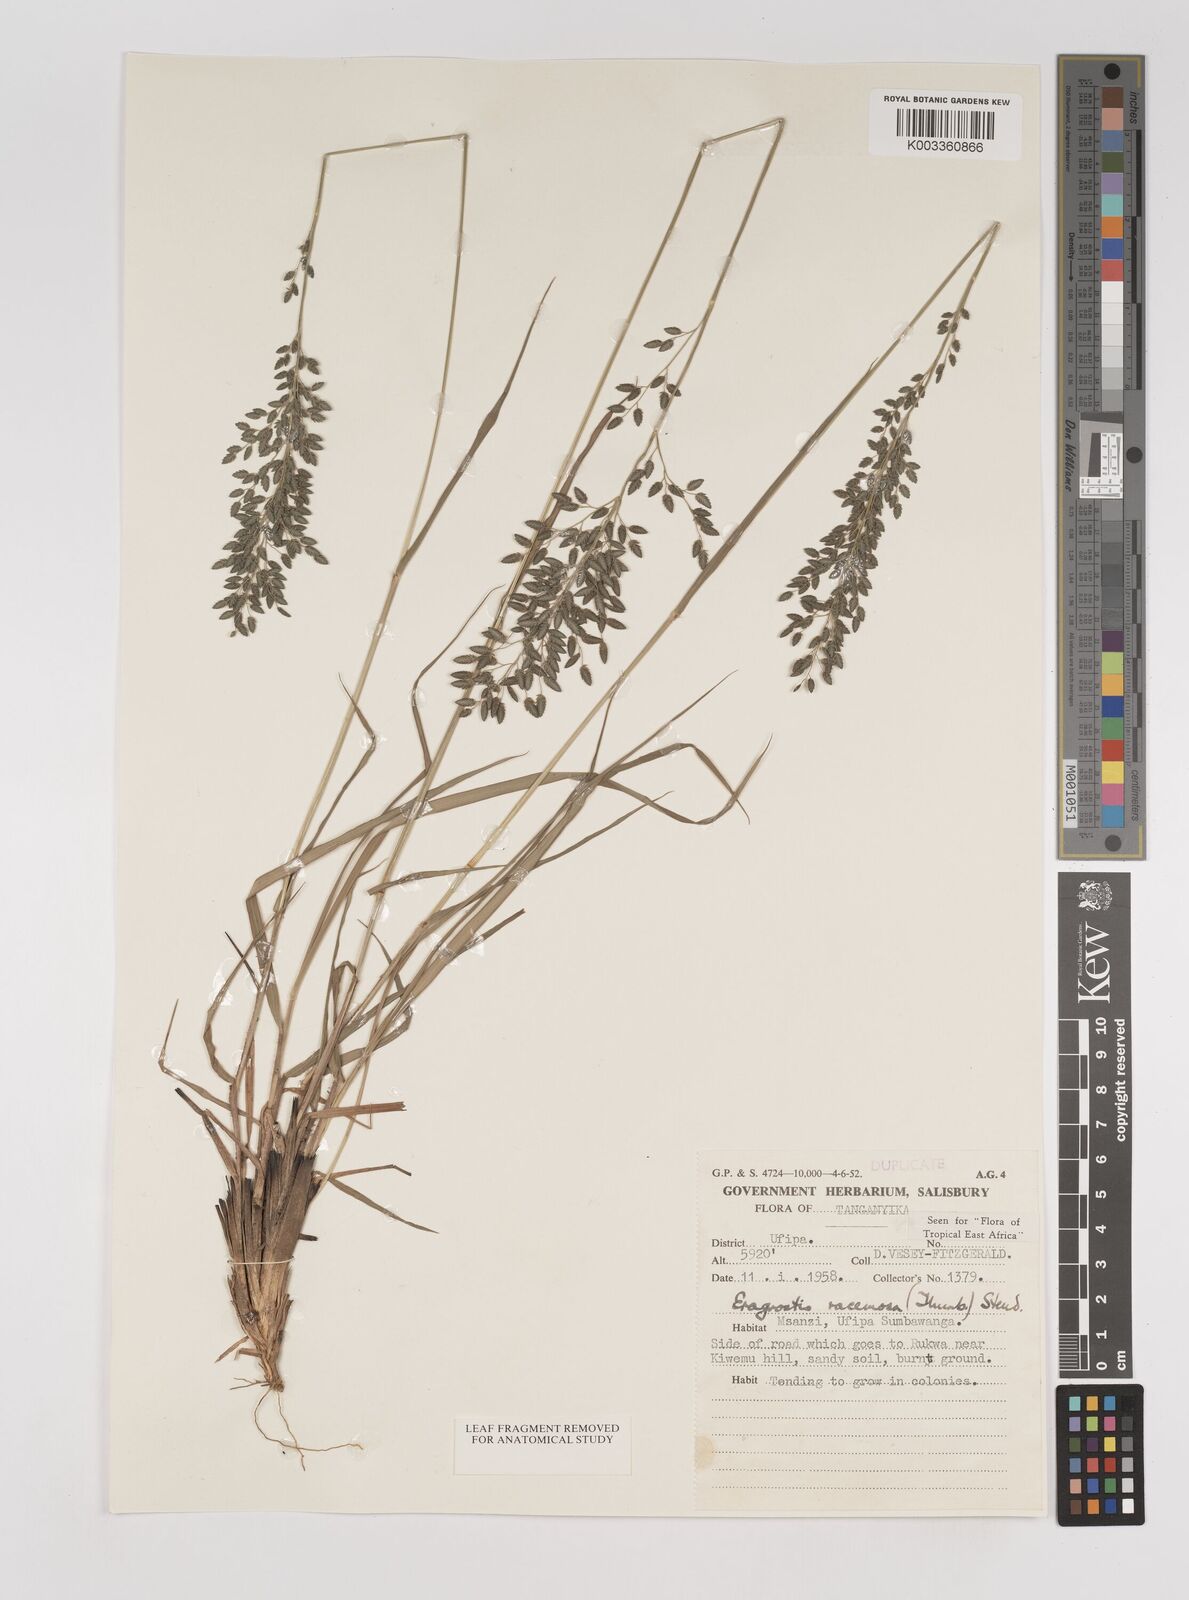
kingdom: Plantae
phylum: Tracheophyta
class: Liliopsida
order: Poales
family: Poaceae
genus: Eragrostis
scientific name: Eragrostis racemosa
